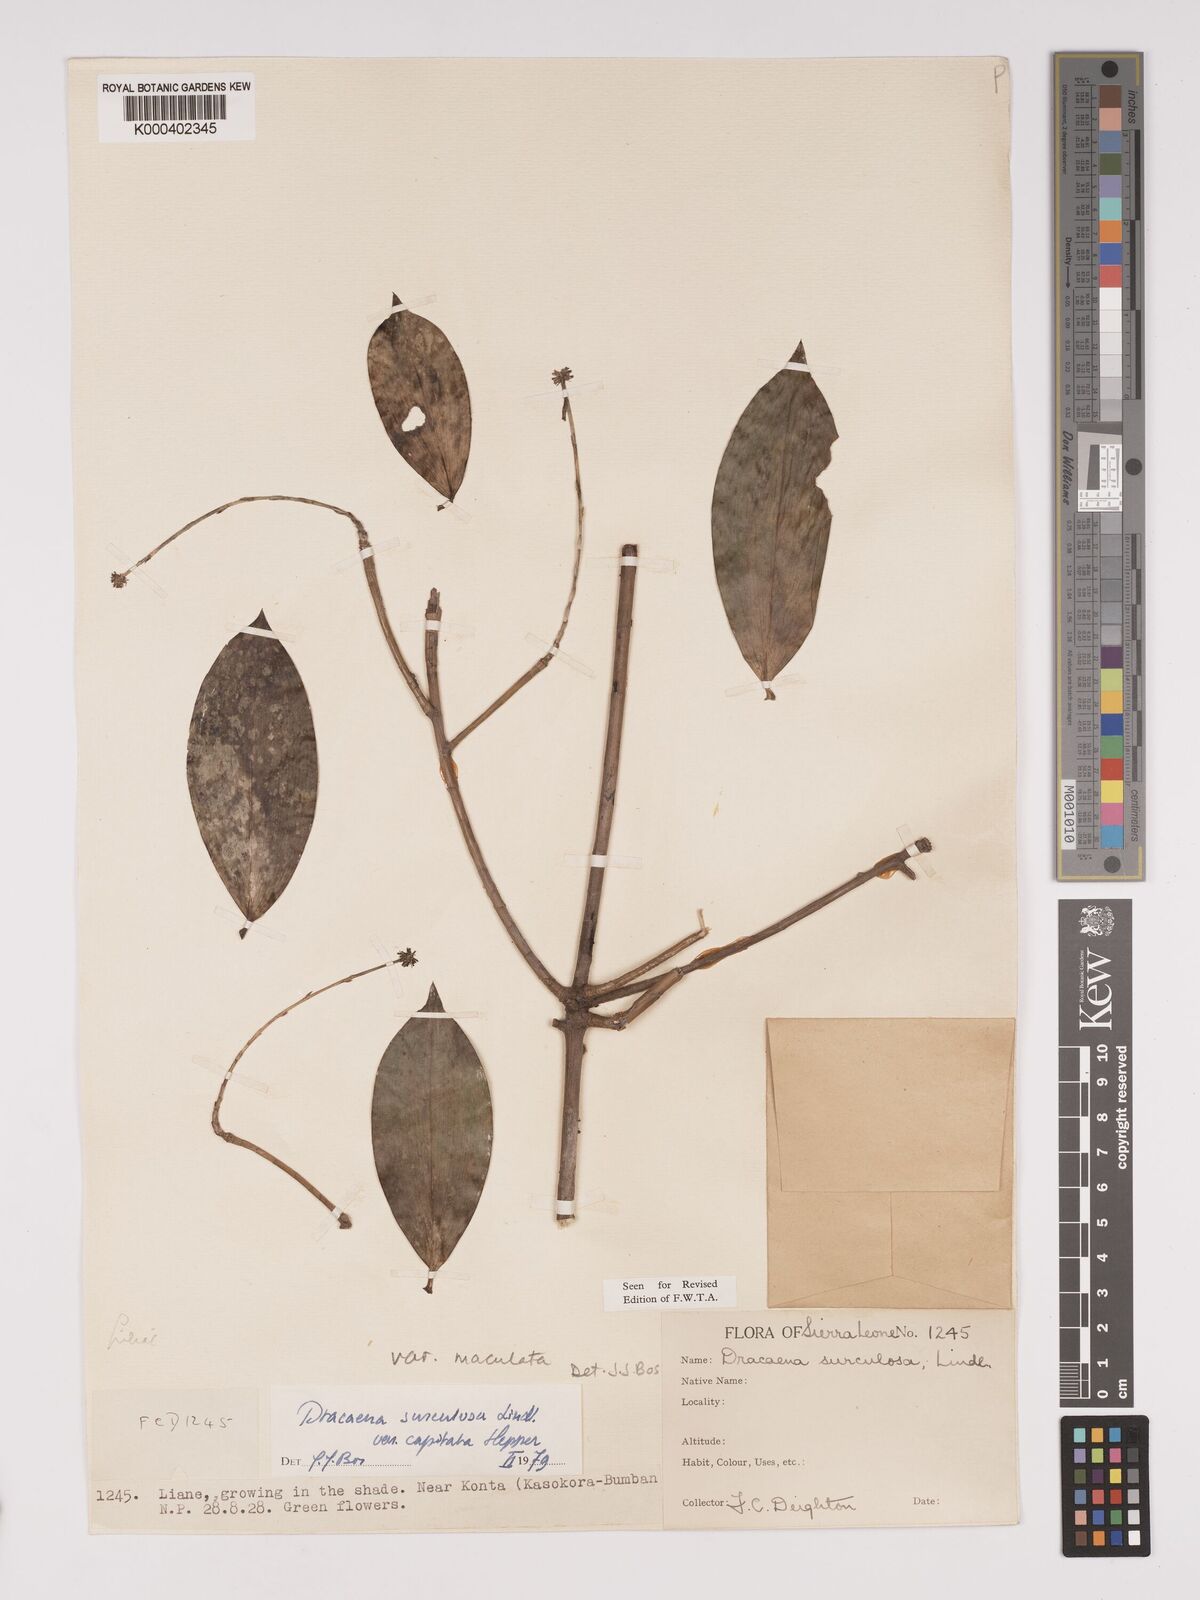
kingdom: Plantae
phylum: Tracheophyta
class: Liliopsida
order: Asparagales
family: Asparagaceae
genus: Dracaena
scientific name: Dracaena surculosa
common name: Spotted dracaena
